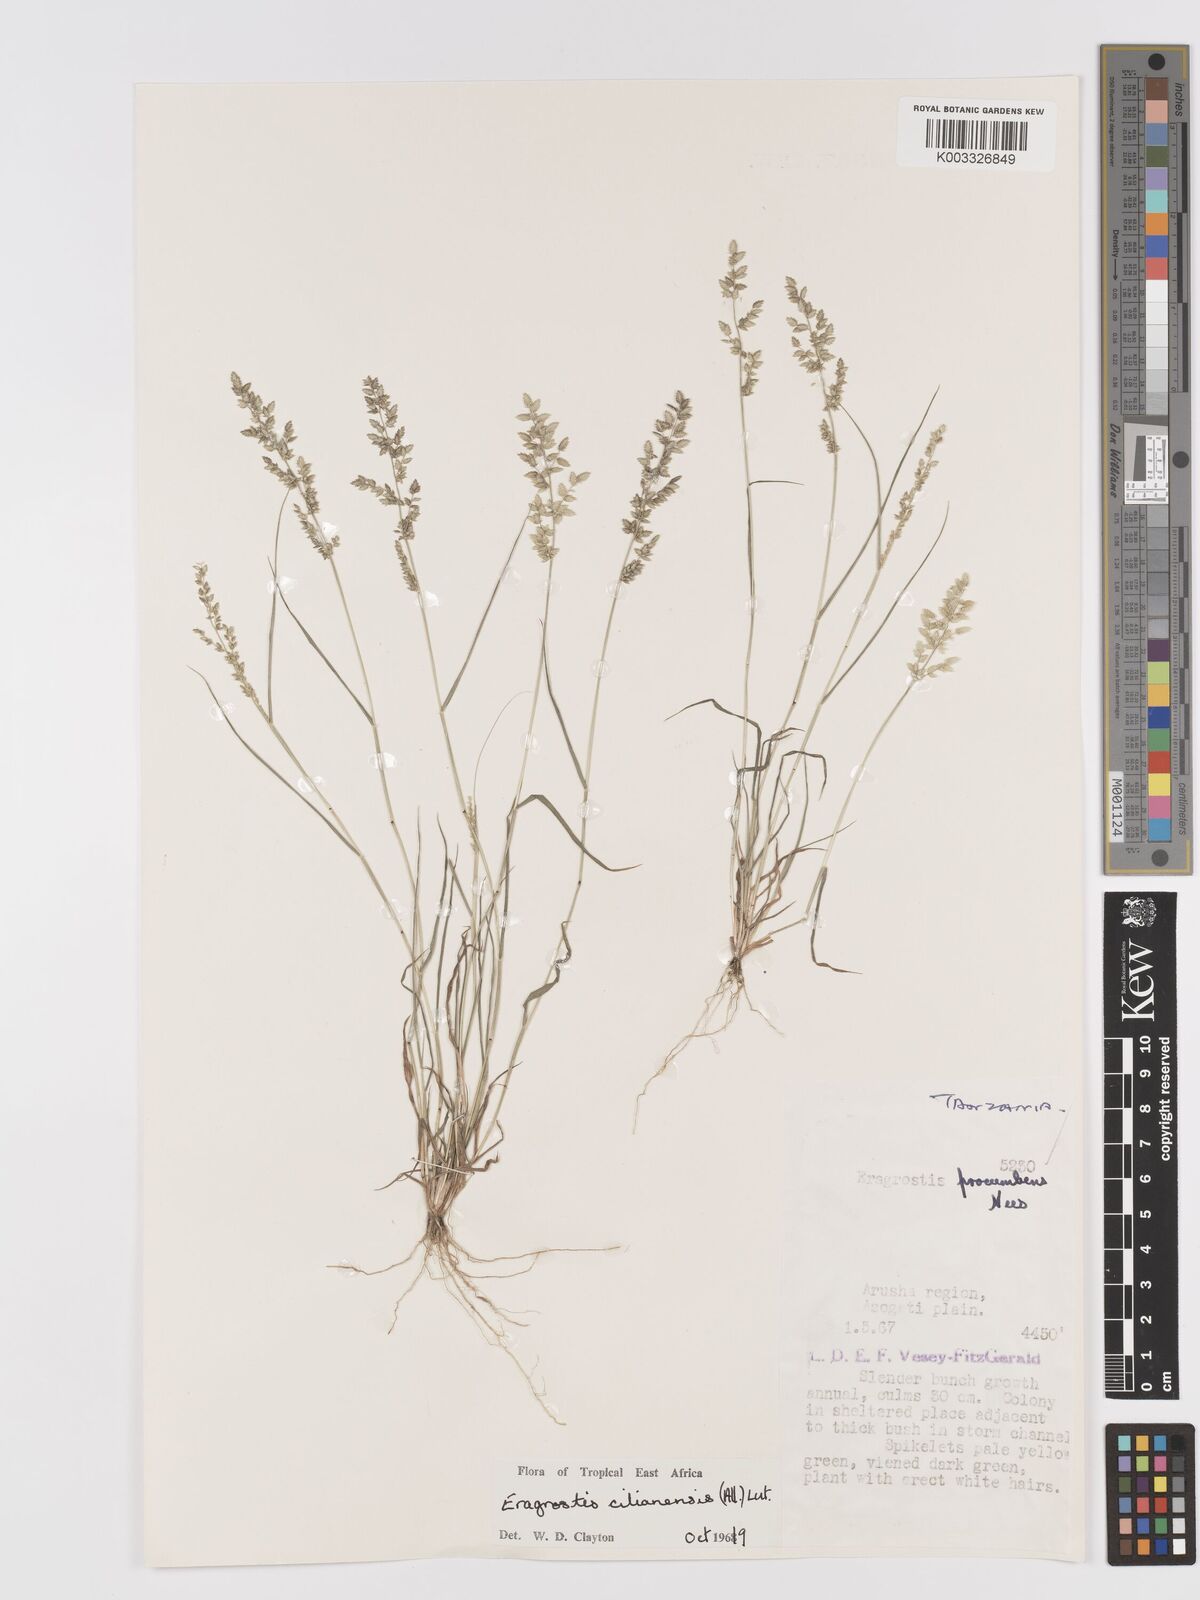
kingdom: Plantae
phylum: Tracheophyta
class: Liliopsida
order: Poales
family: Poaceae
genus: Eragrostis
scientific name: Eragrostis cilianensis
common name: Stinkgrass
